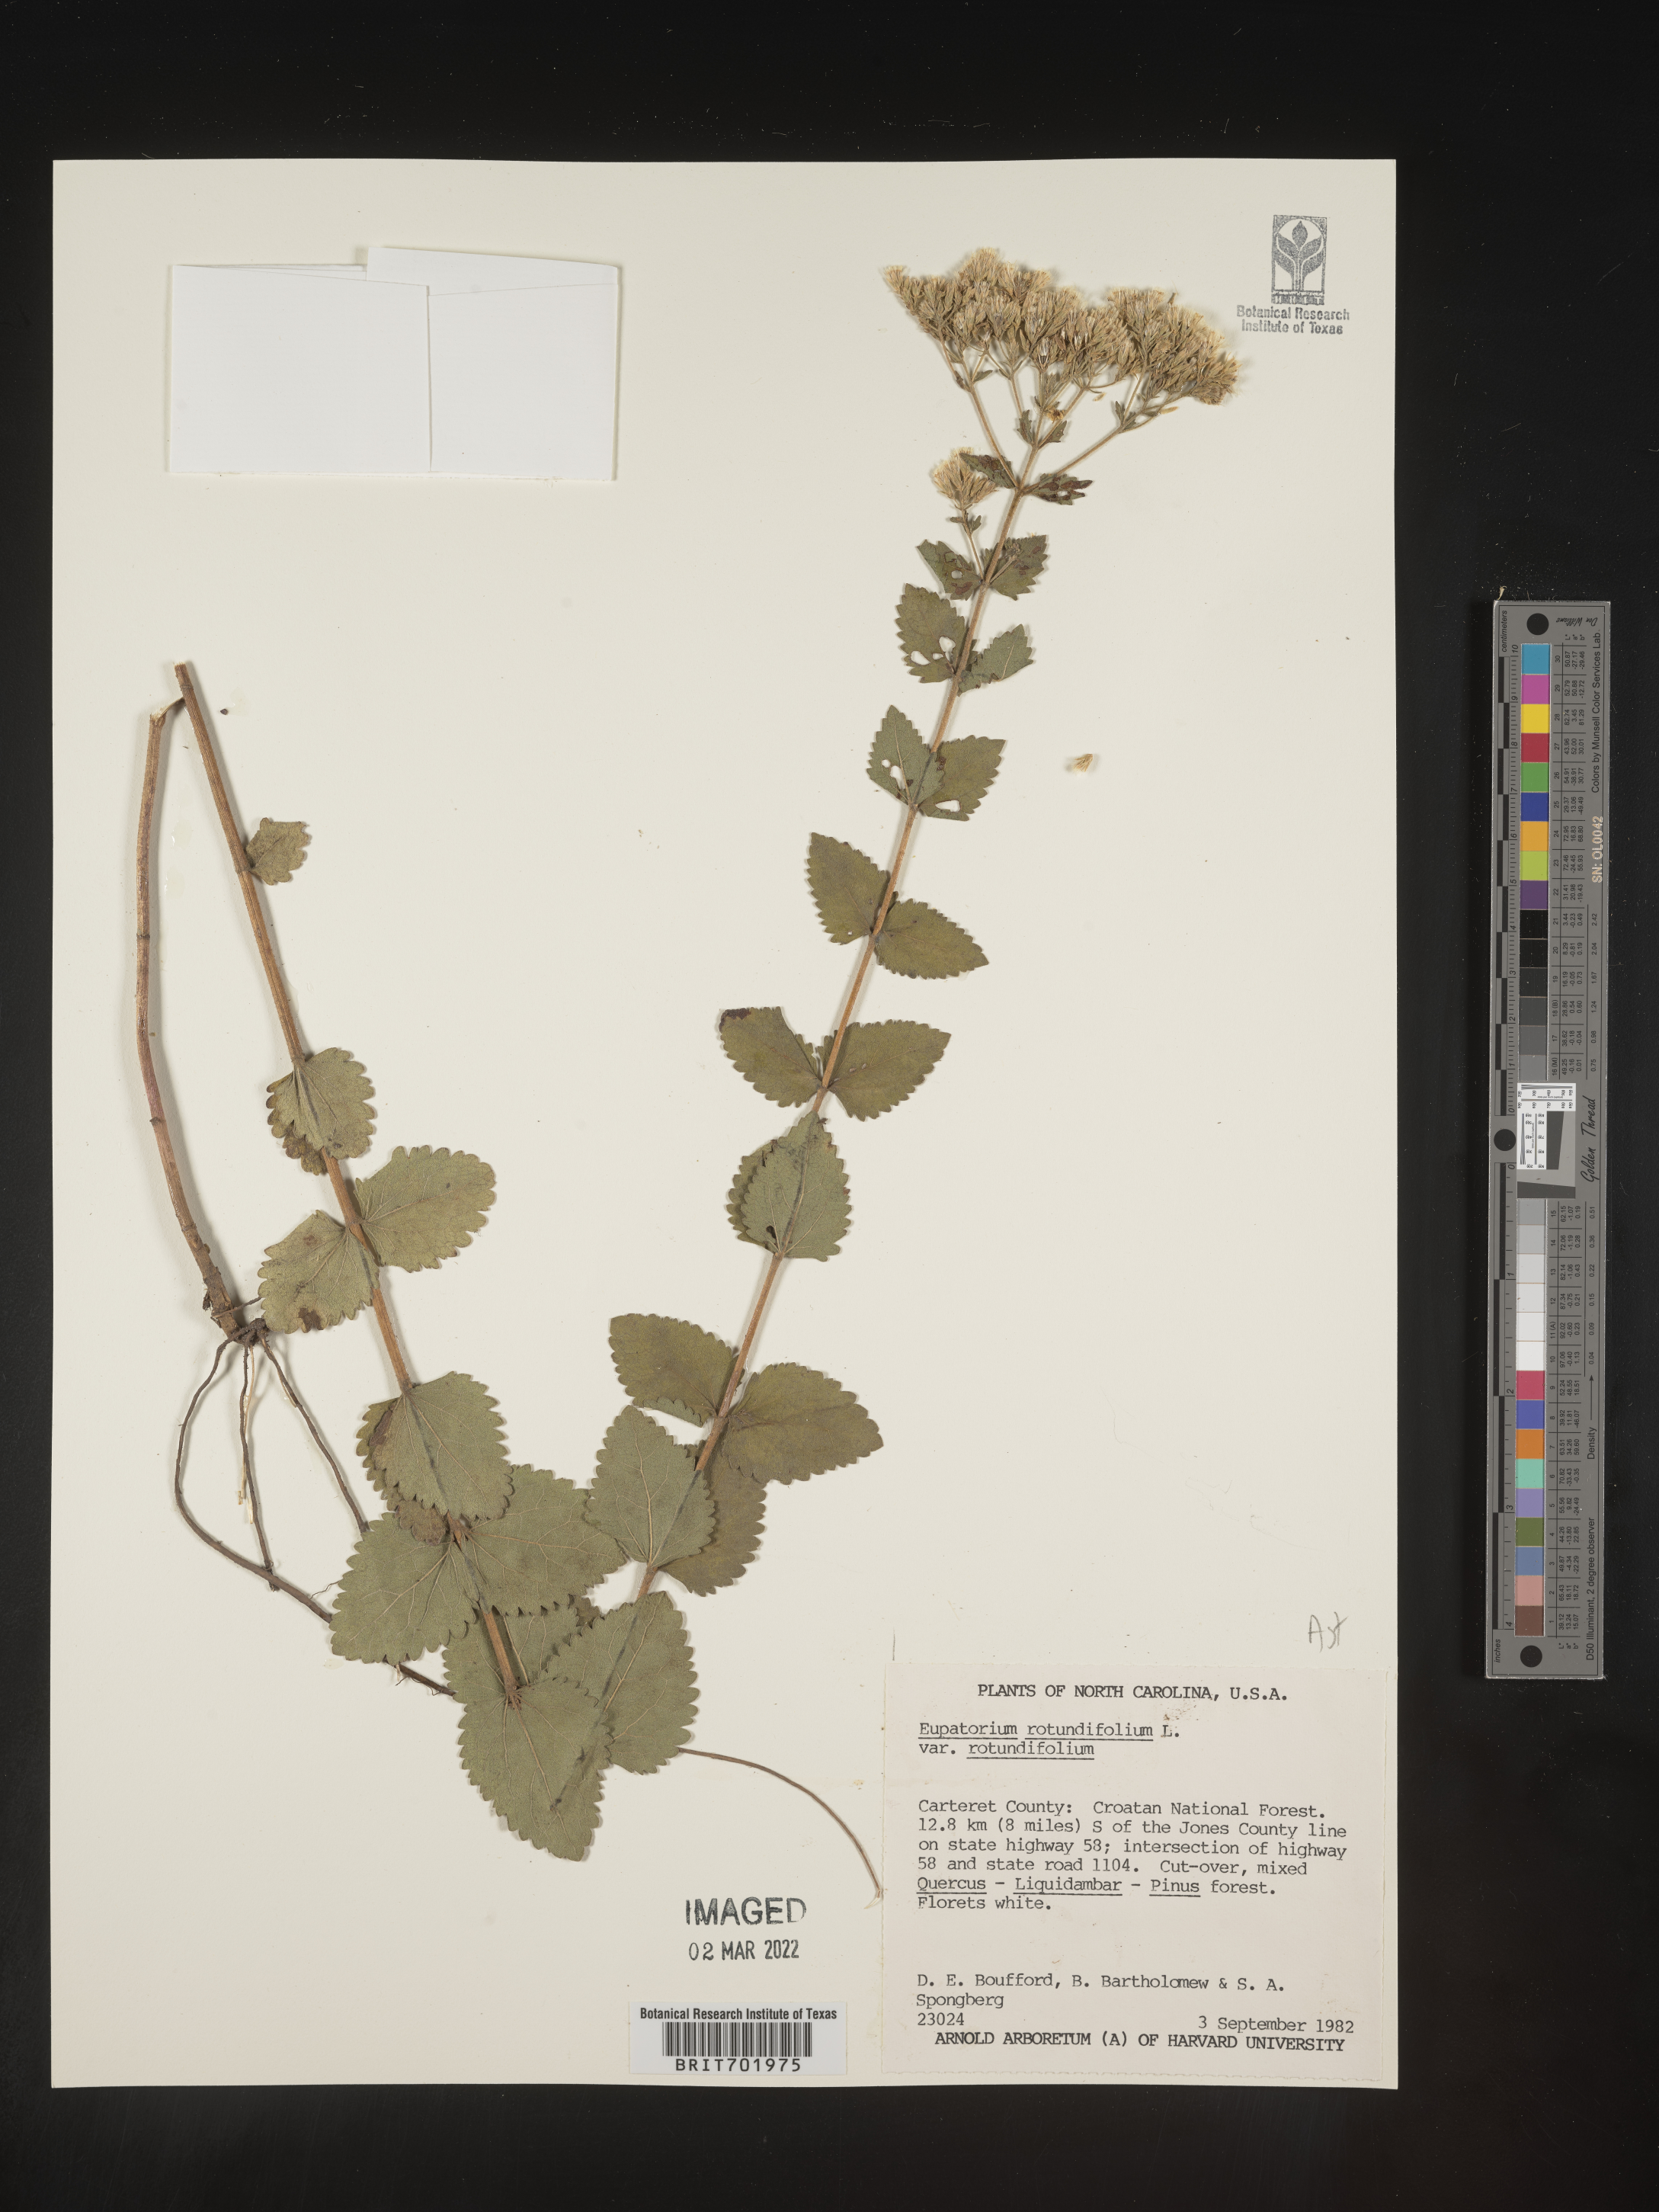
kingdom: Plantae
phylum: Tracheophyta
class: Magnoliopsida
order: Asterales
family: Asteraceae
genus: Eupatorium
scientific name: Eupatorium rotundifolium
